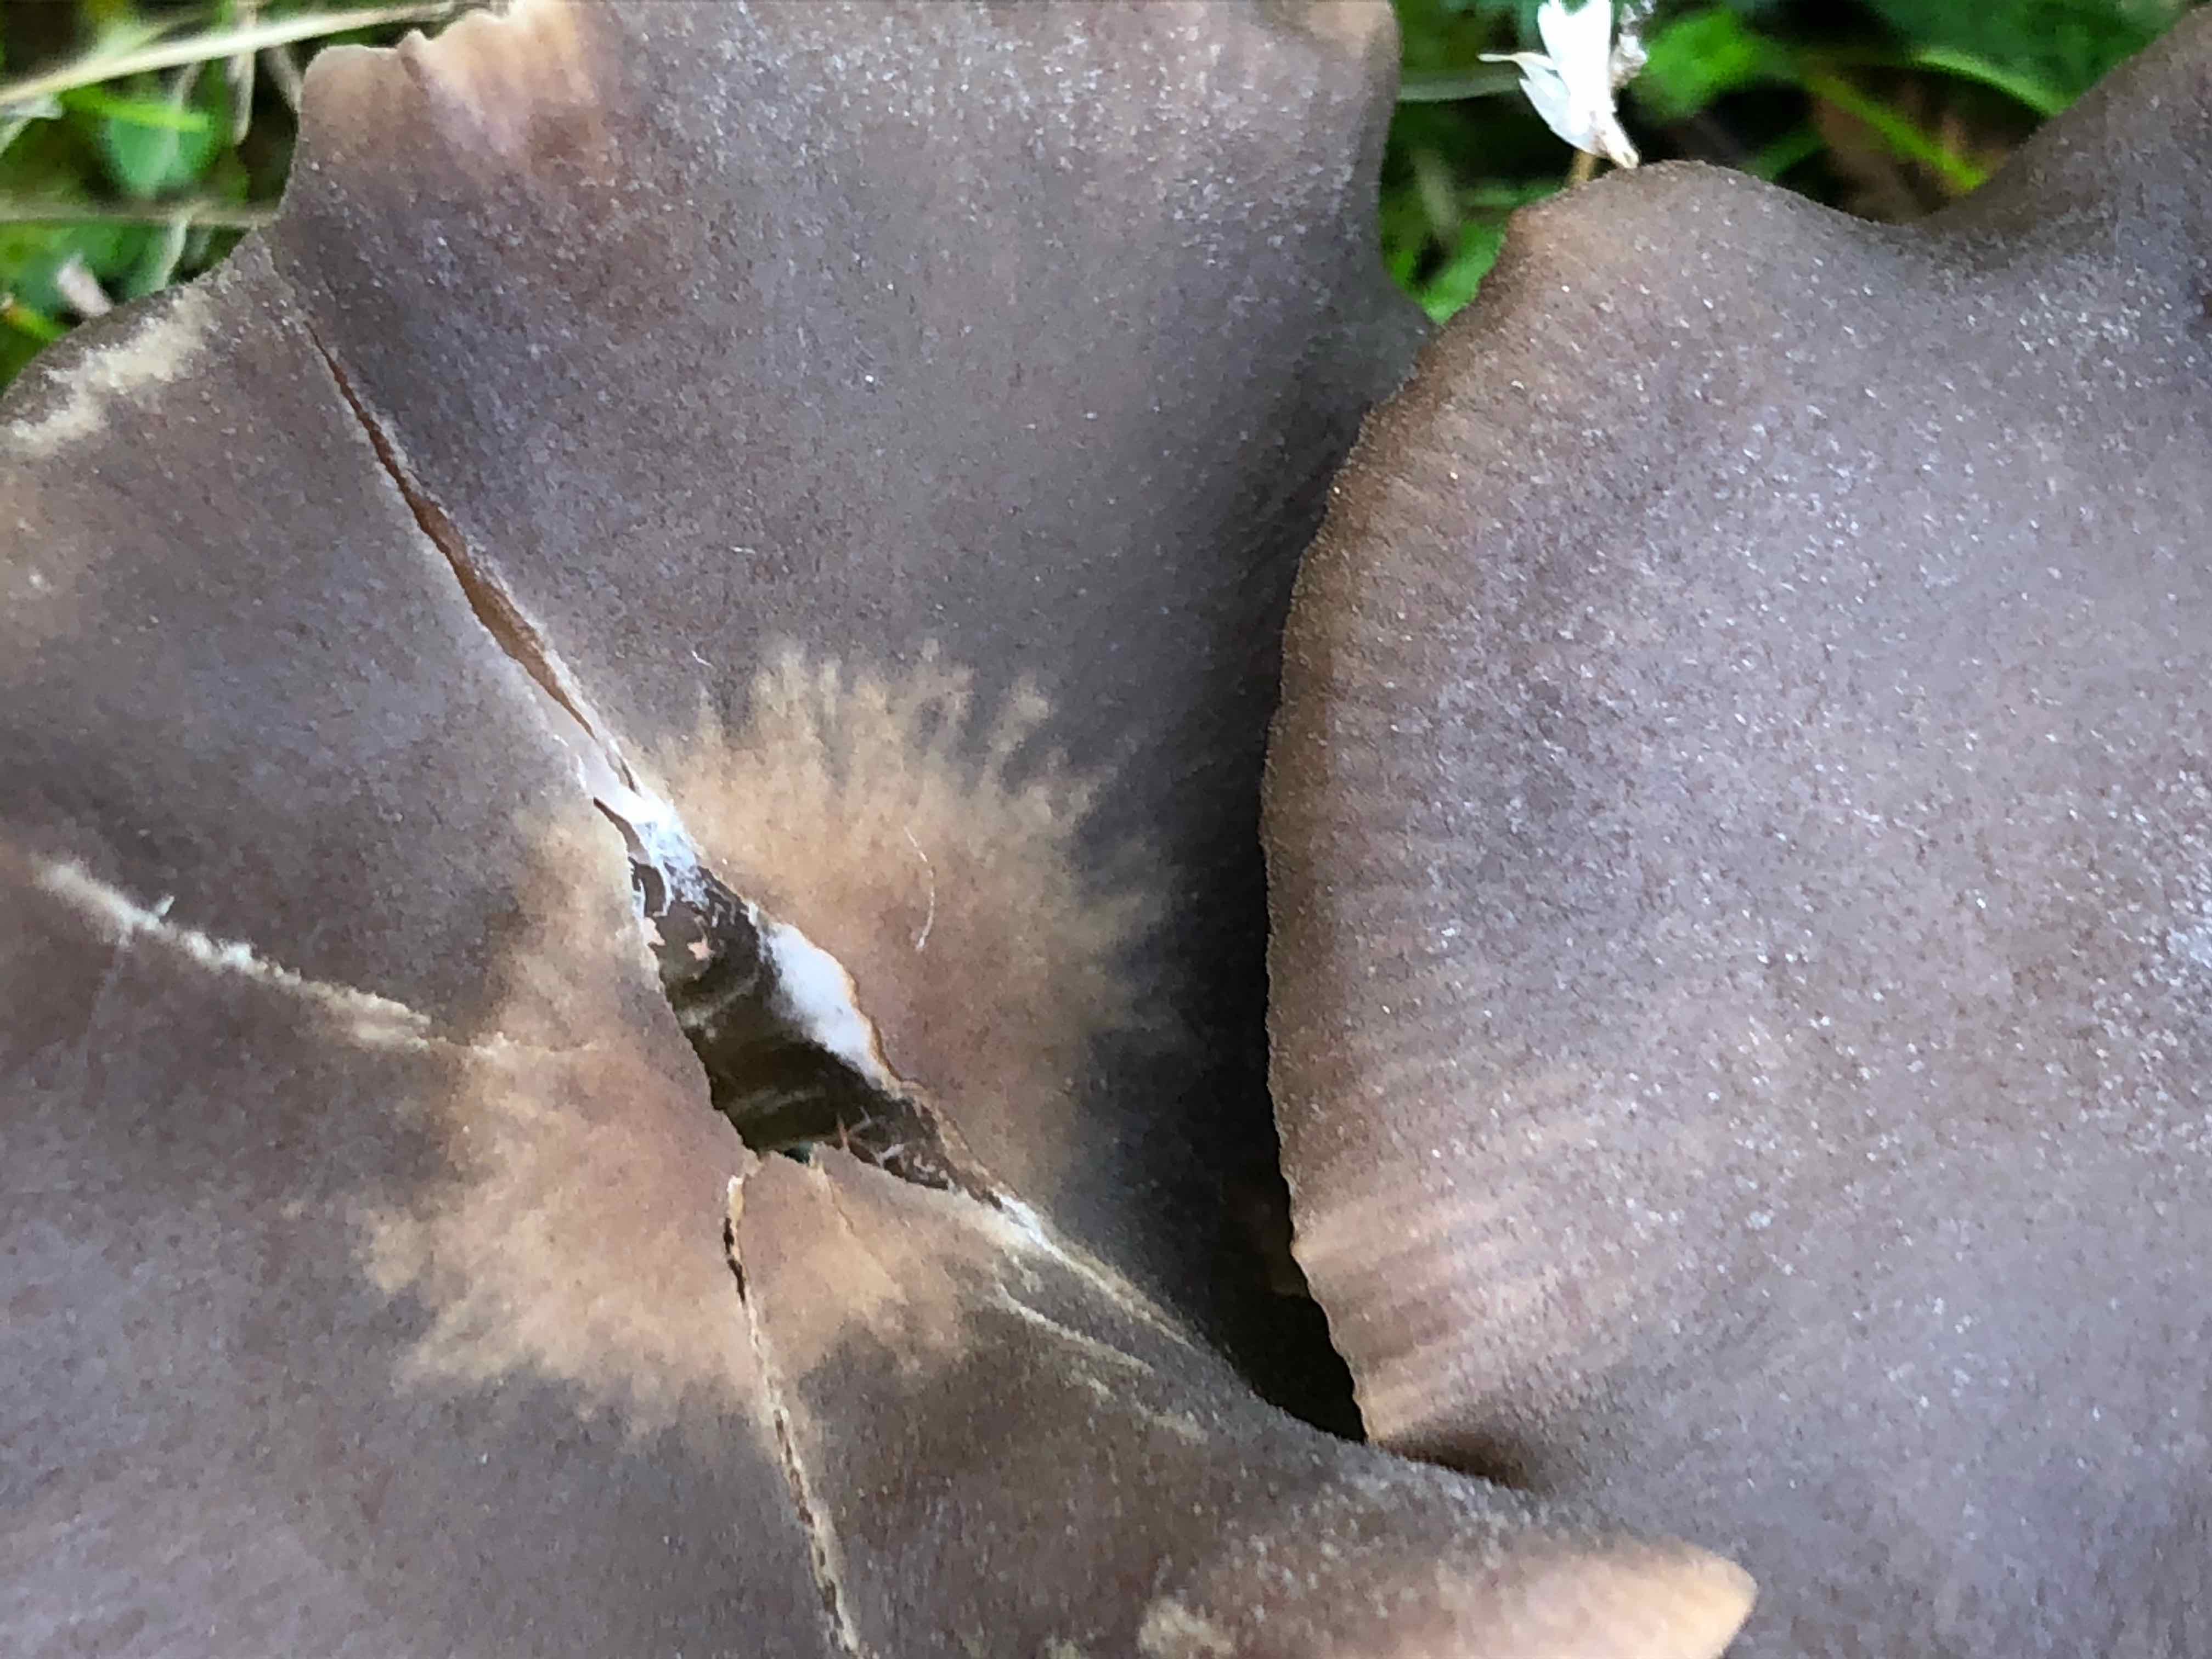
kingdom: Fungi
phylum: Basidiomycota
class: Agaricomycetes
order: Agaricales
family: Entolomataceae
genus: Entoloma
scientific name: Entoloma sericeum
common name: silkeglinsende rødblad
